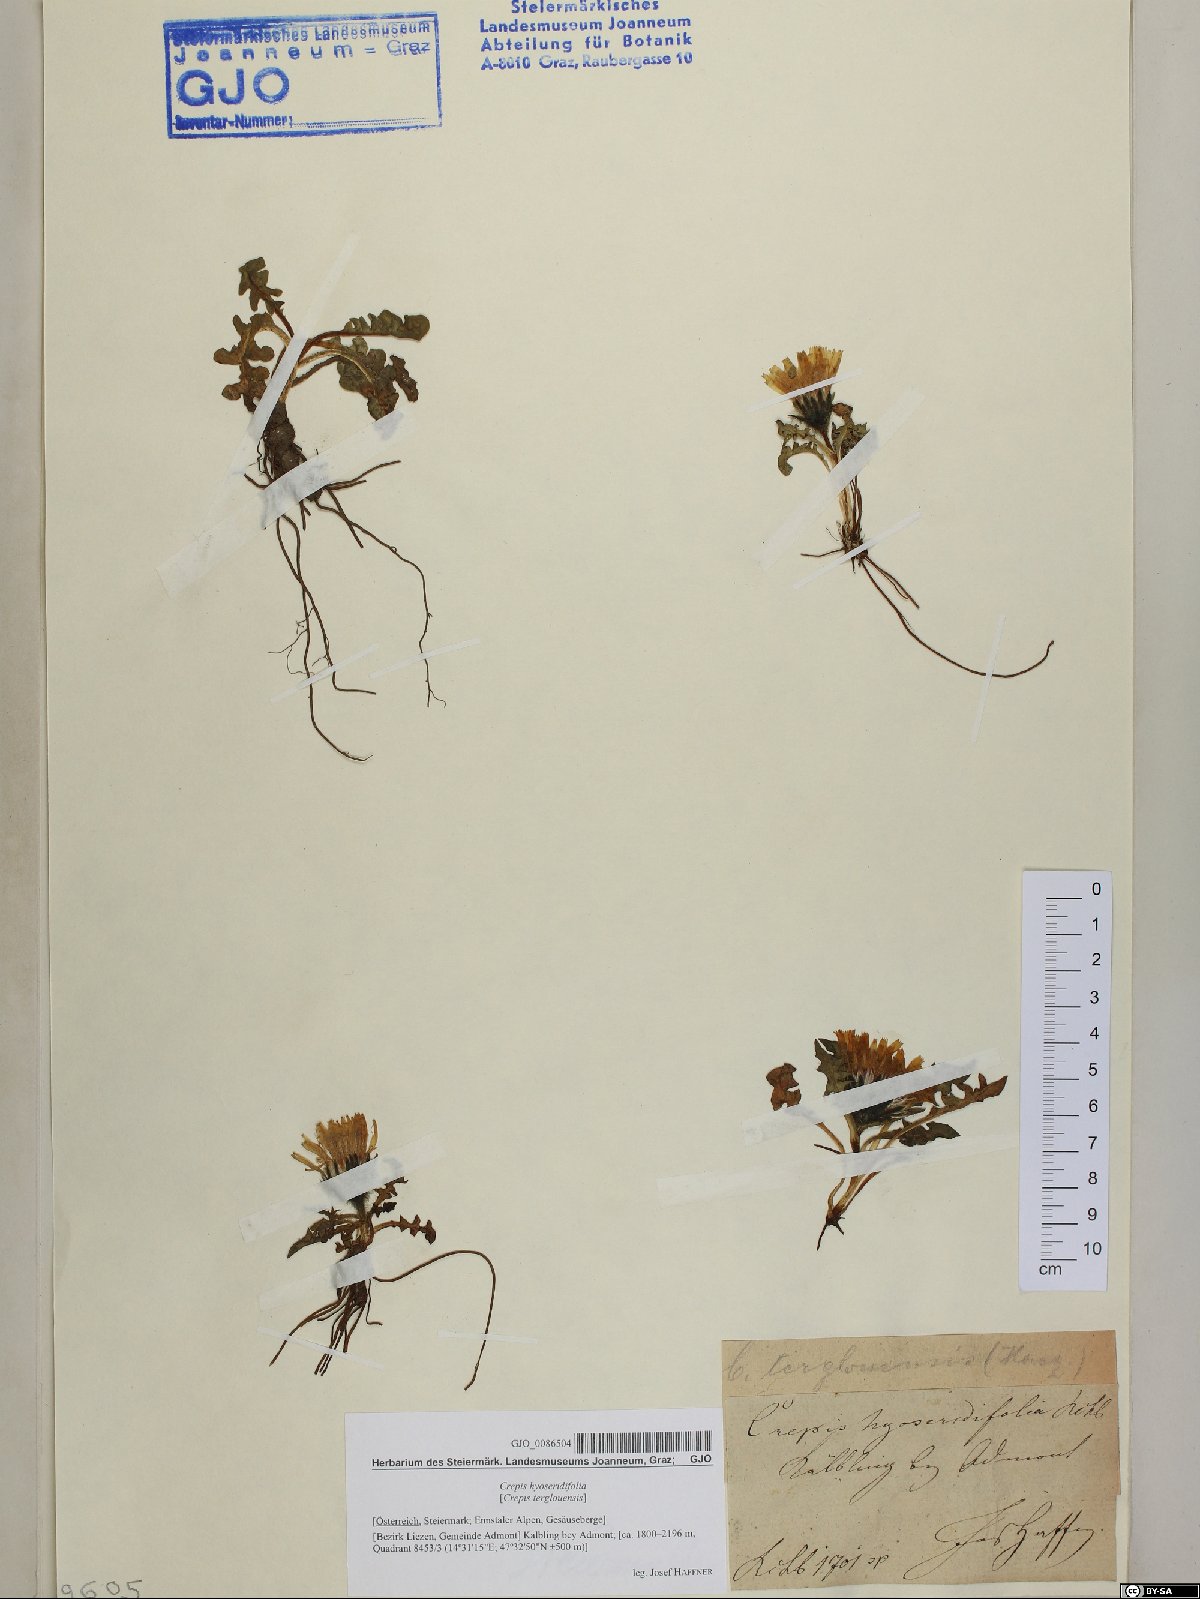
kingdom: Plantae
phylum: Tracheophyta
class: Magnoliopsida
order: Asterales
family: Asteraceae
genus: Crepis
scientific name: Crepis terglouensis
